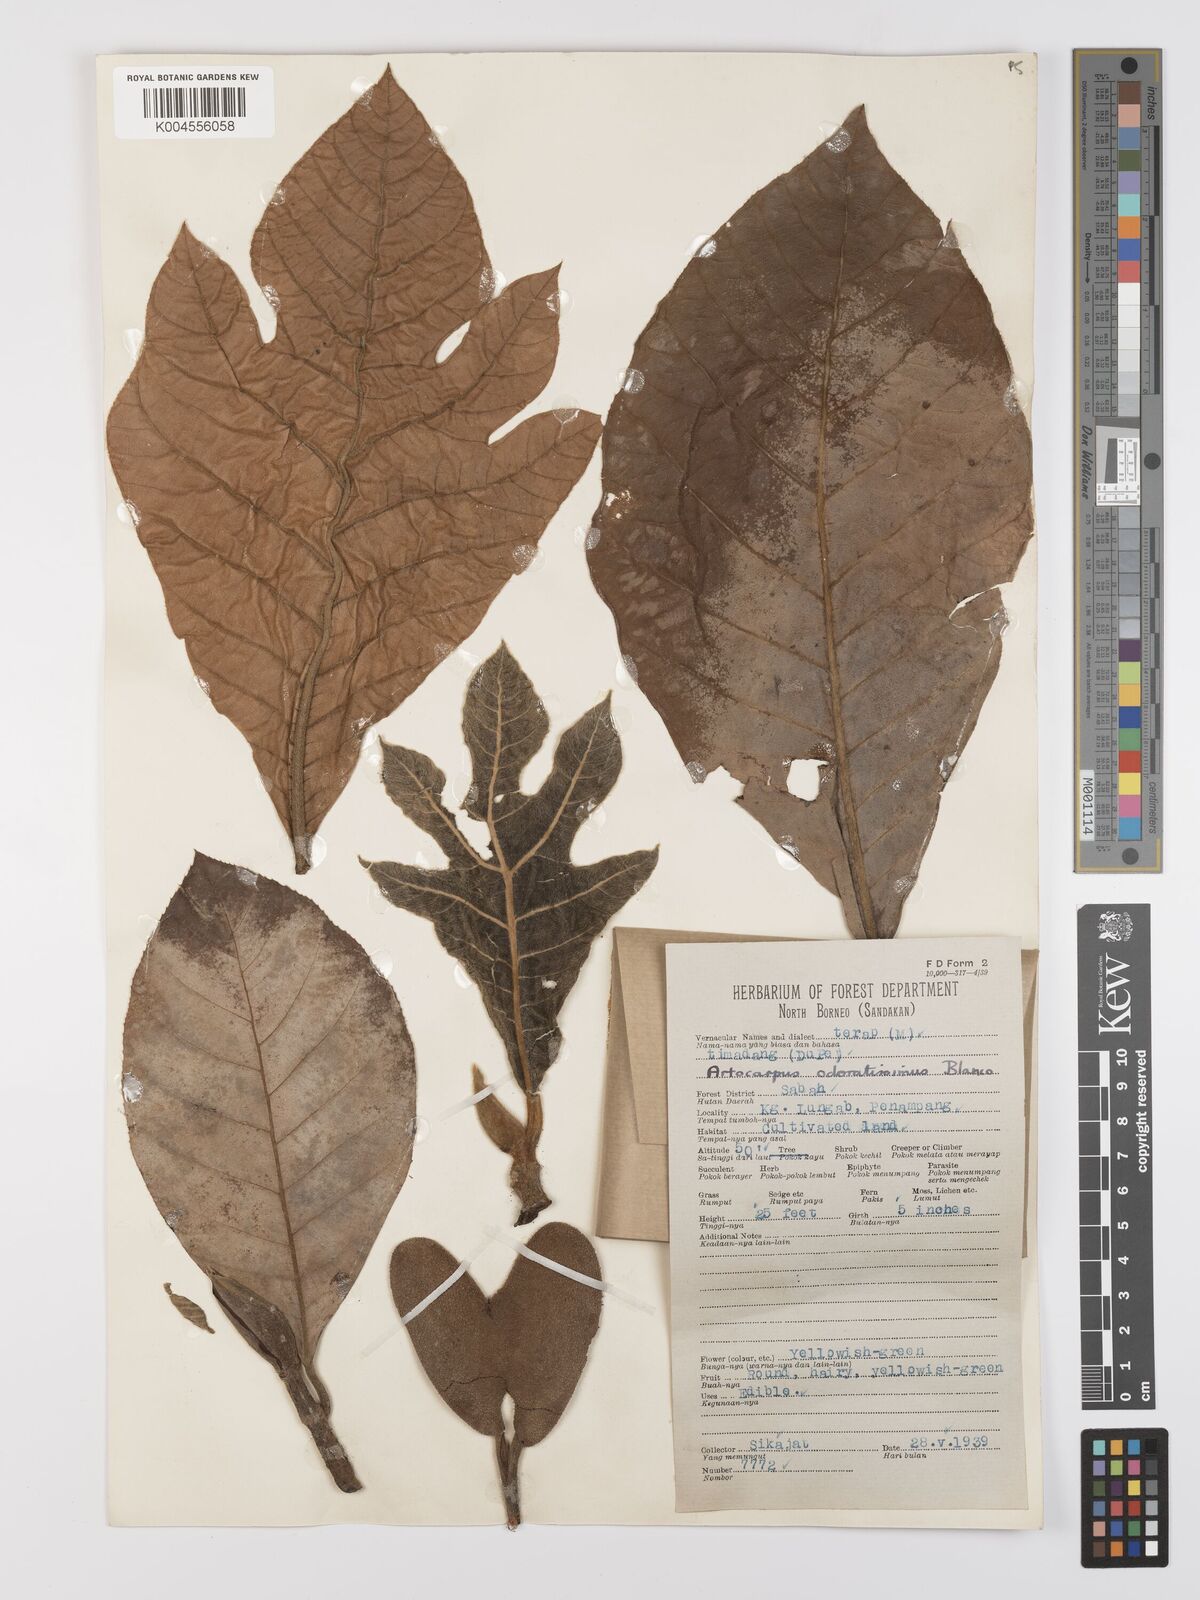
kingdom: Plantae
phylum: Tracheophyta
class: Magnoliopsida
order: Rosales
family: Moraceae
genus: Artocarpus
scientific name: Artocarpus odoratissimus
